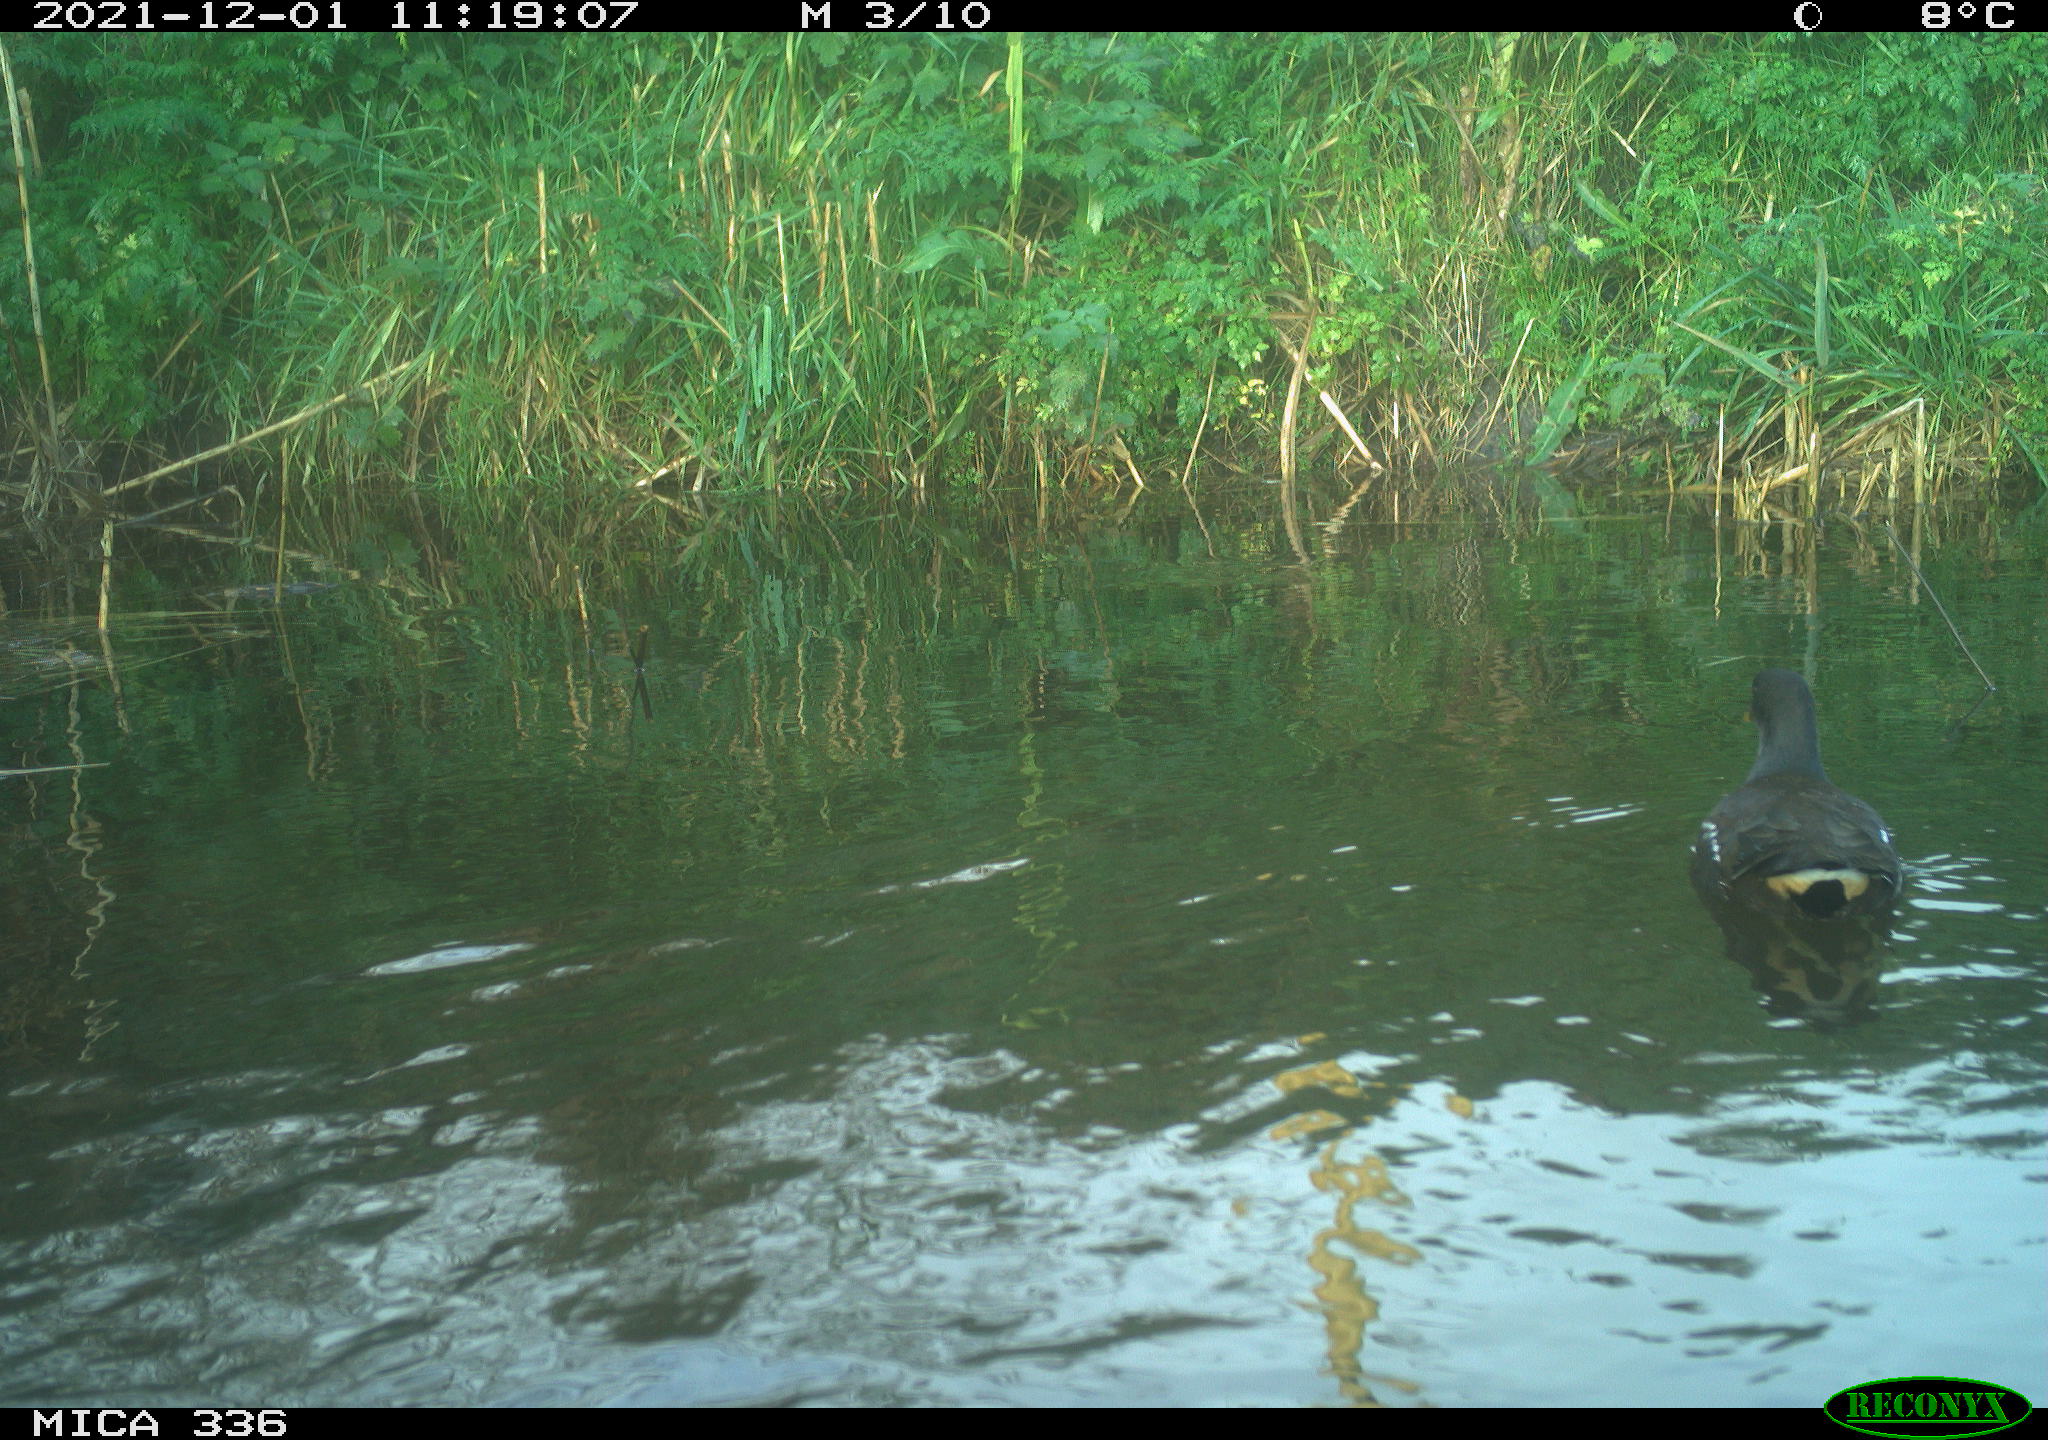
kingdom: Animalia
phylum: Chordata
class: Aves
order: Gruiformes
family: Rallidae
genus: Gallinula
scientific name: Gallinula chloropus
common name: Common moorhen
